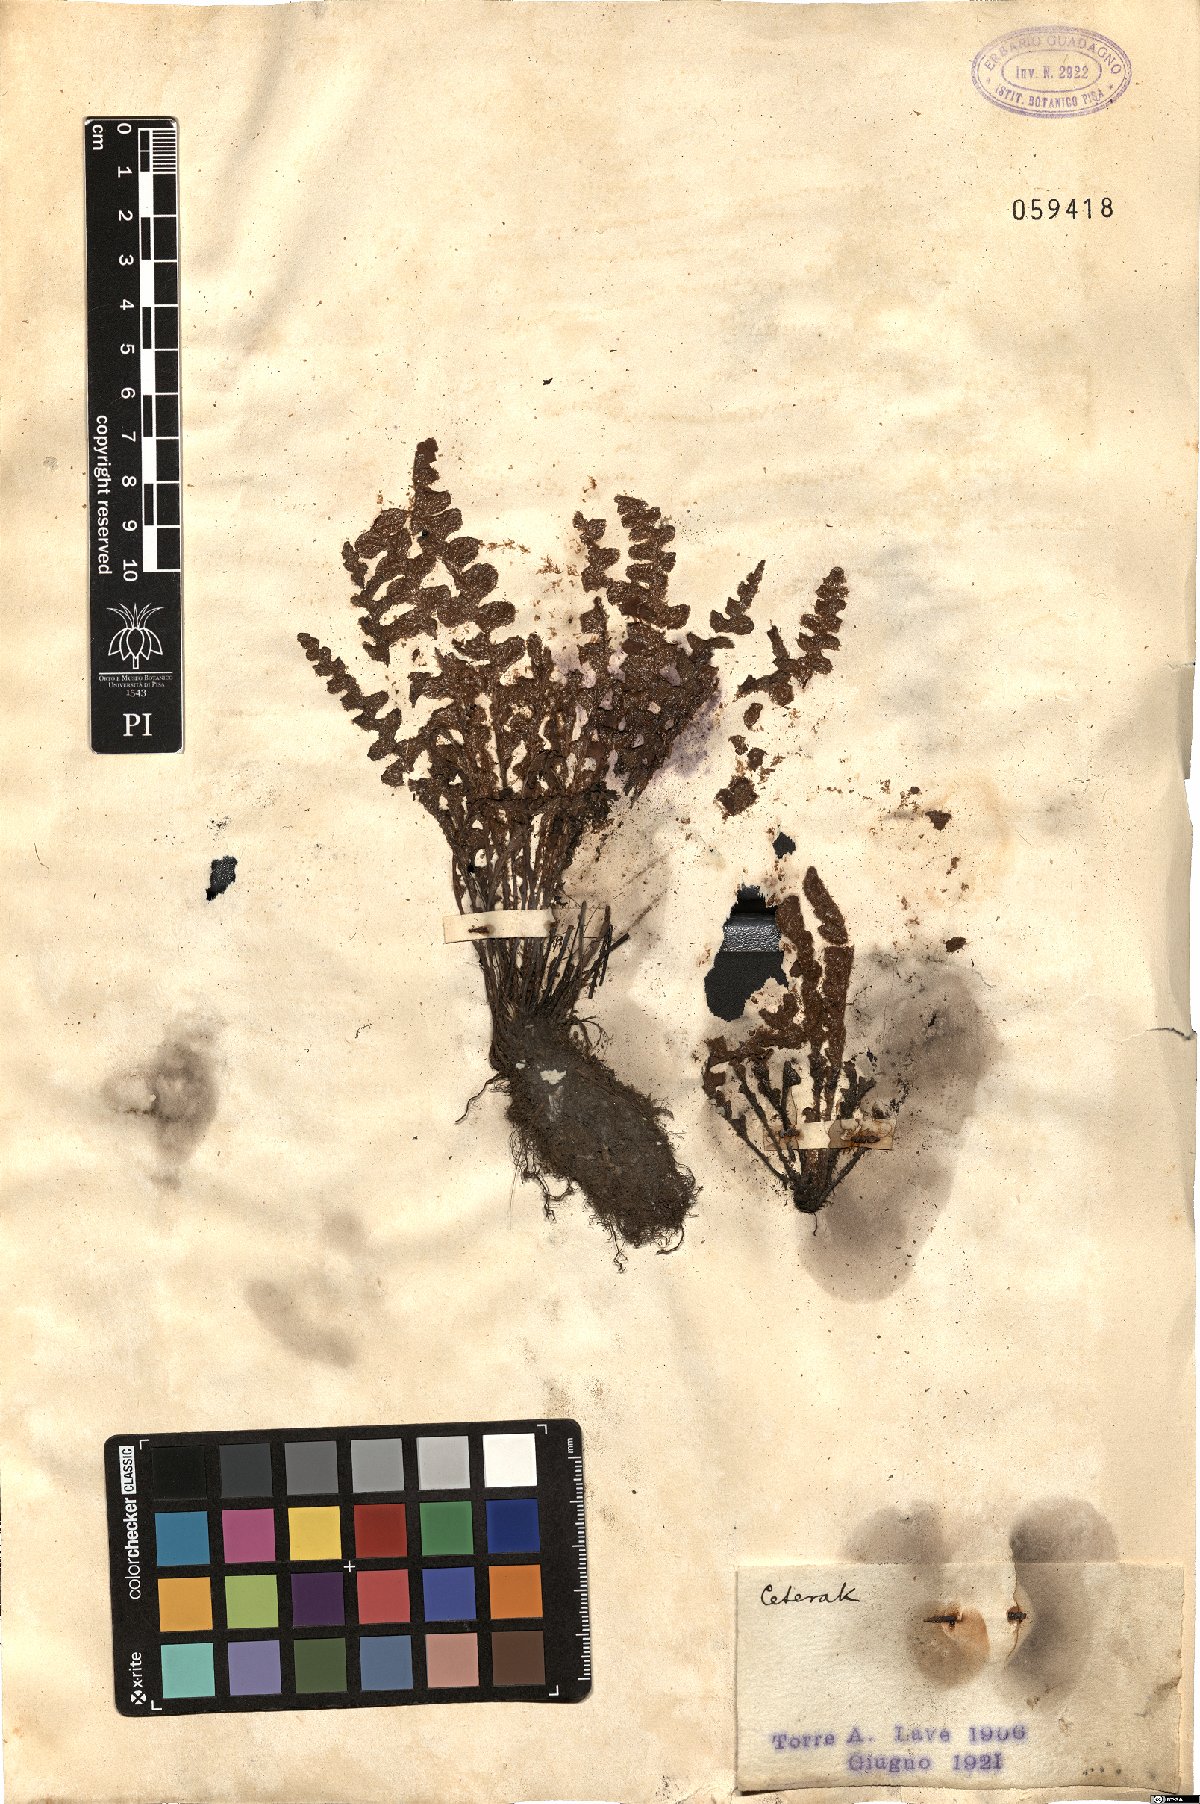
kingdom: Plantae
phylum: Tracheophyta
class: Polypodiopsida
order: Polypodiales
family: Aspleniaceae
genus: Ceterach
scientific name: Ceterach
